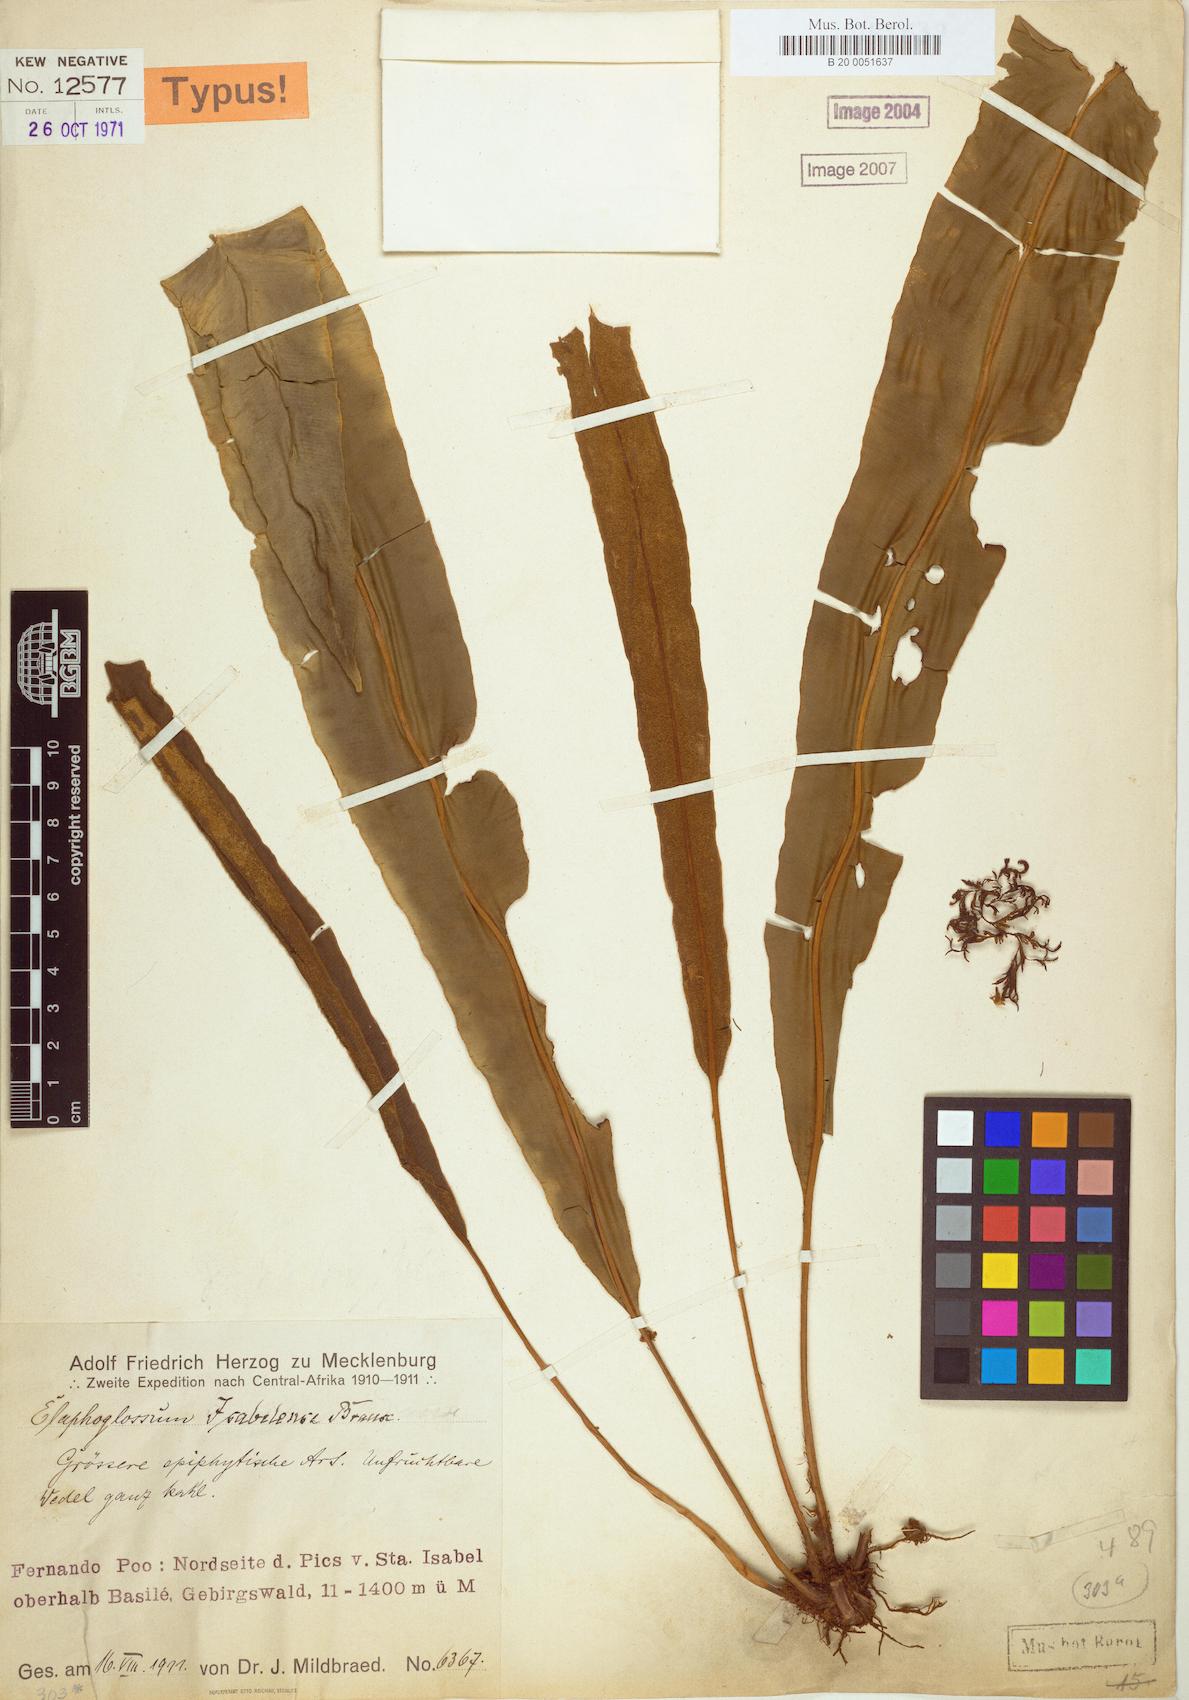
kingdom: Plantae
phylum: Tracheophyta
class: Polypodiopsida
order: Polypodiales
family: Dryopteridaceae
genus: Elaphoglossum
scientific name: Elaphoglossum isabelense
